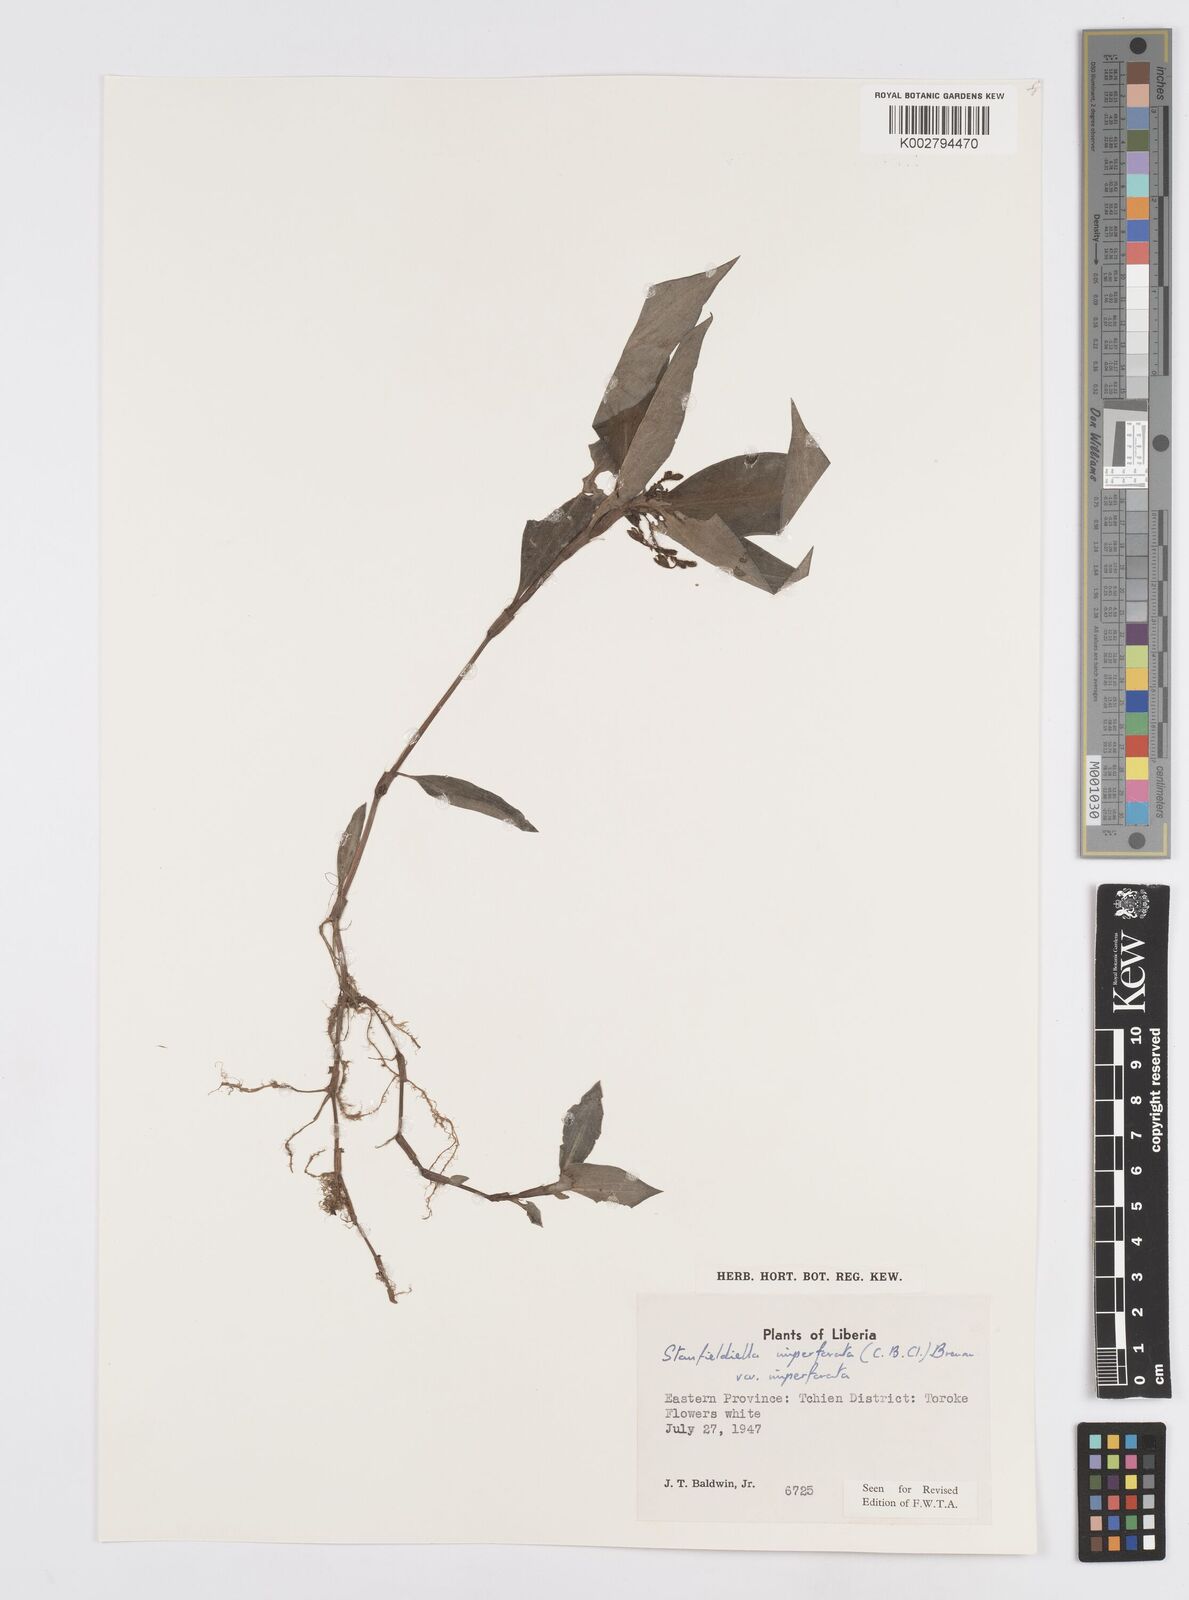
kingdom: Plantae
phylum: Tracheophyta
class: Liliopsida
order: Commelinales
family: Commelinaceae
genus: Stanfieldiella
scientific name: Stanfieldiella imperforata
